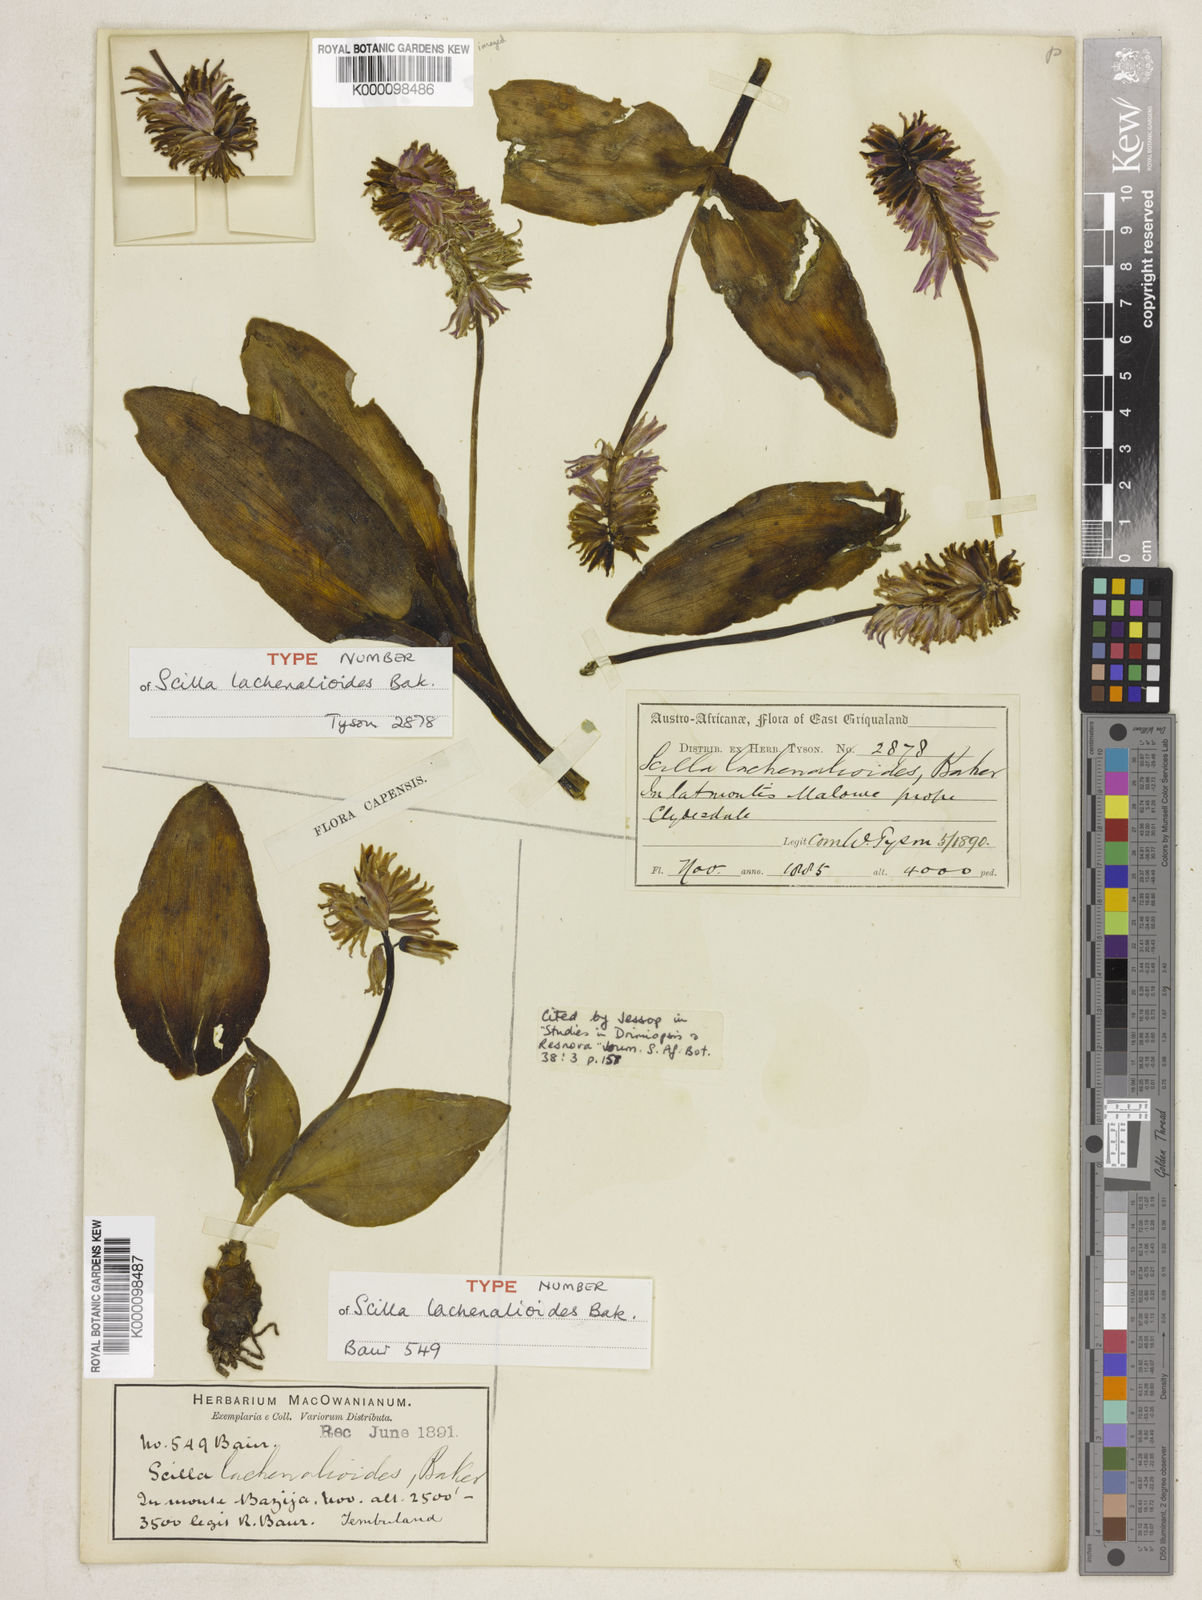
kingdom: Plantae
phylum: Tracheophyta
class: Liliopsida
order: Asparagales
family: Asparagaceae
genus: Resnova
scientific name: Resnova lachenalioides
